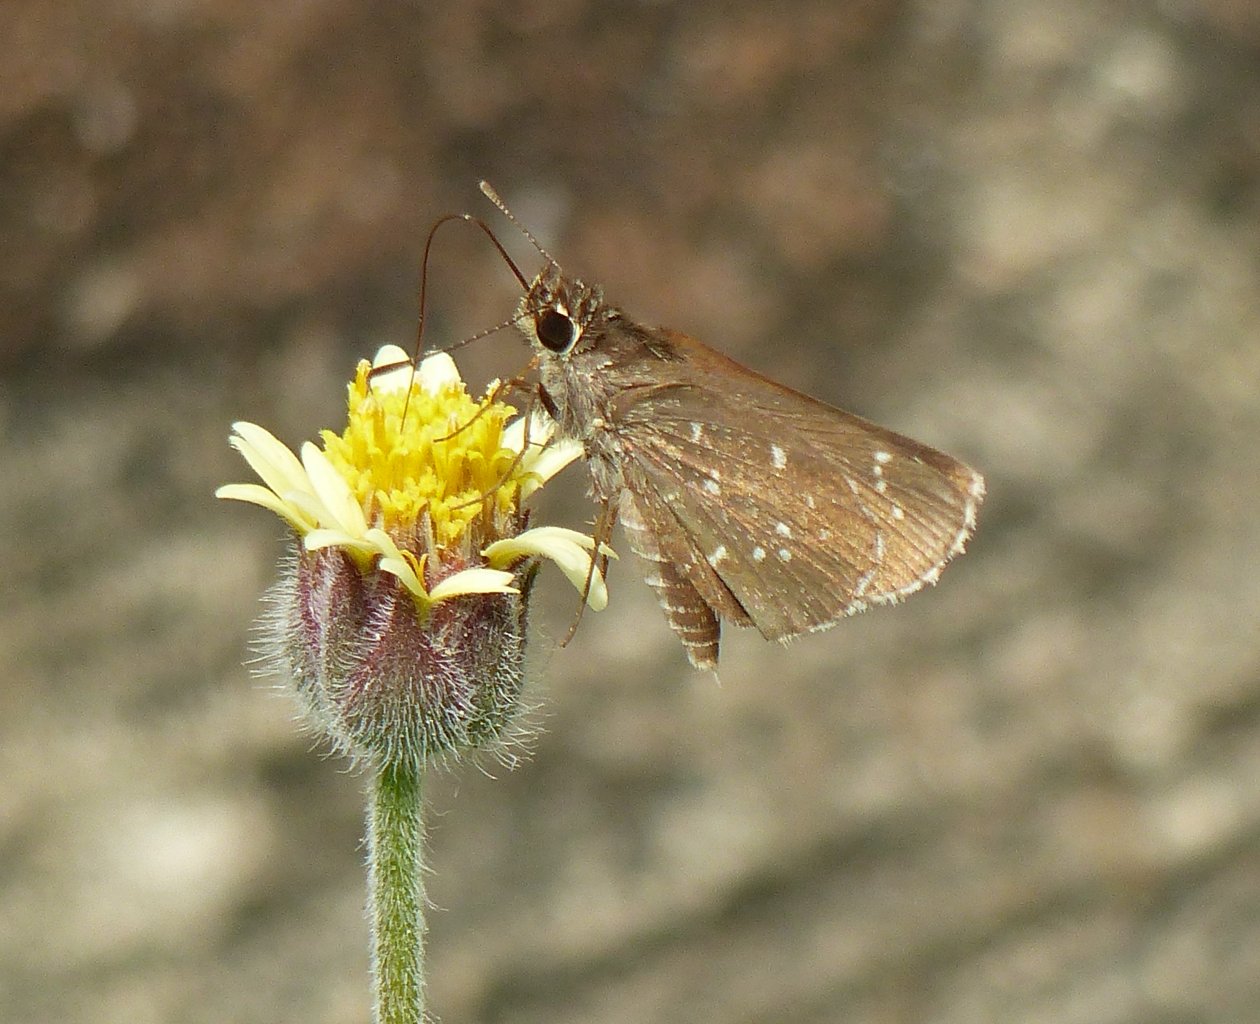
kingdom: Animalia
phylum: Arthropoda
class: Insecta
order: Lepidoptera
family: Hesperiidae
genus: Mastor
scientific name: Mastor celia
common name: Celia's Roadside-Skipper
